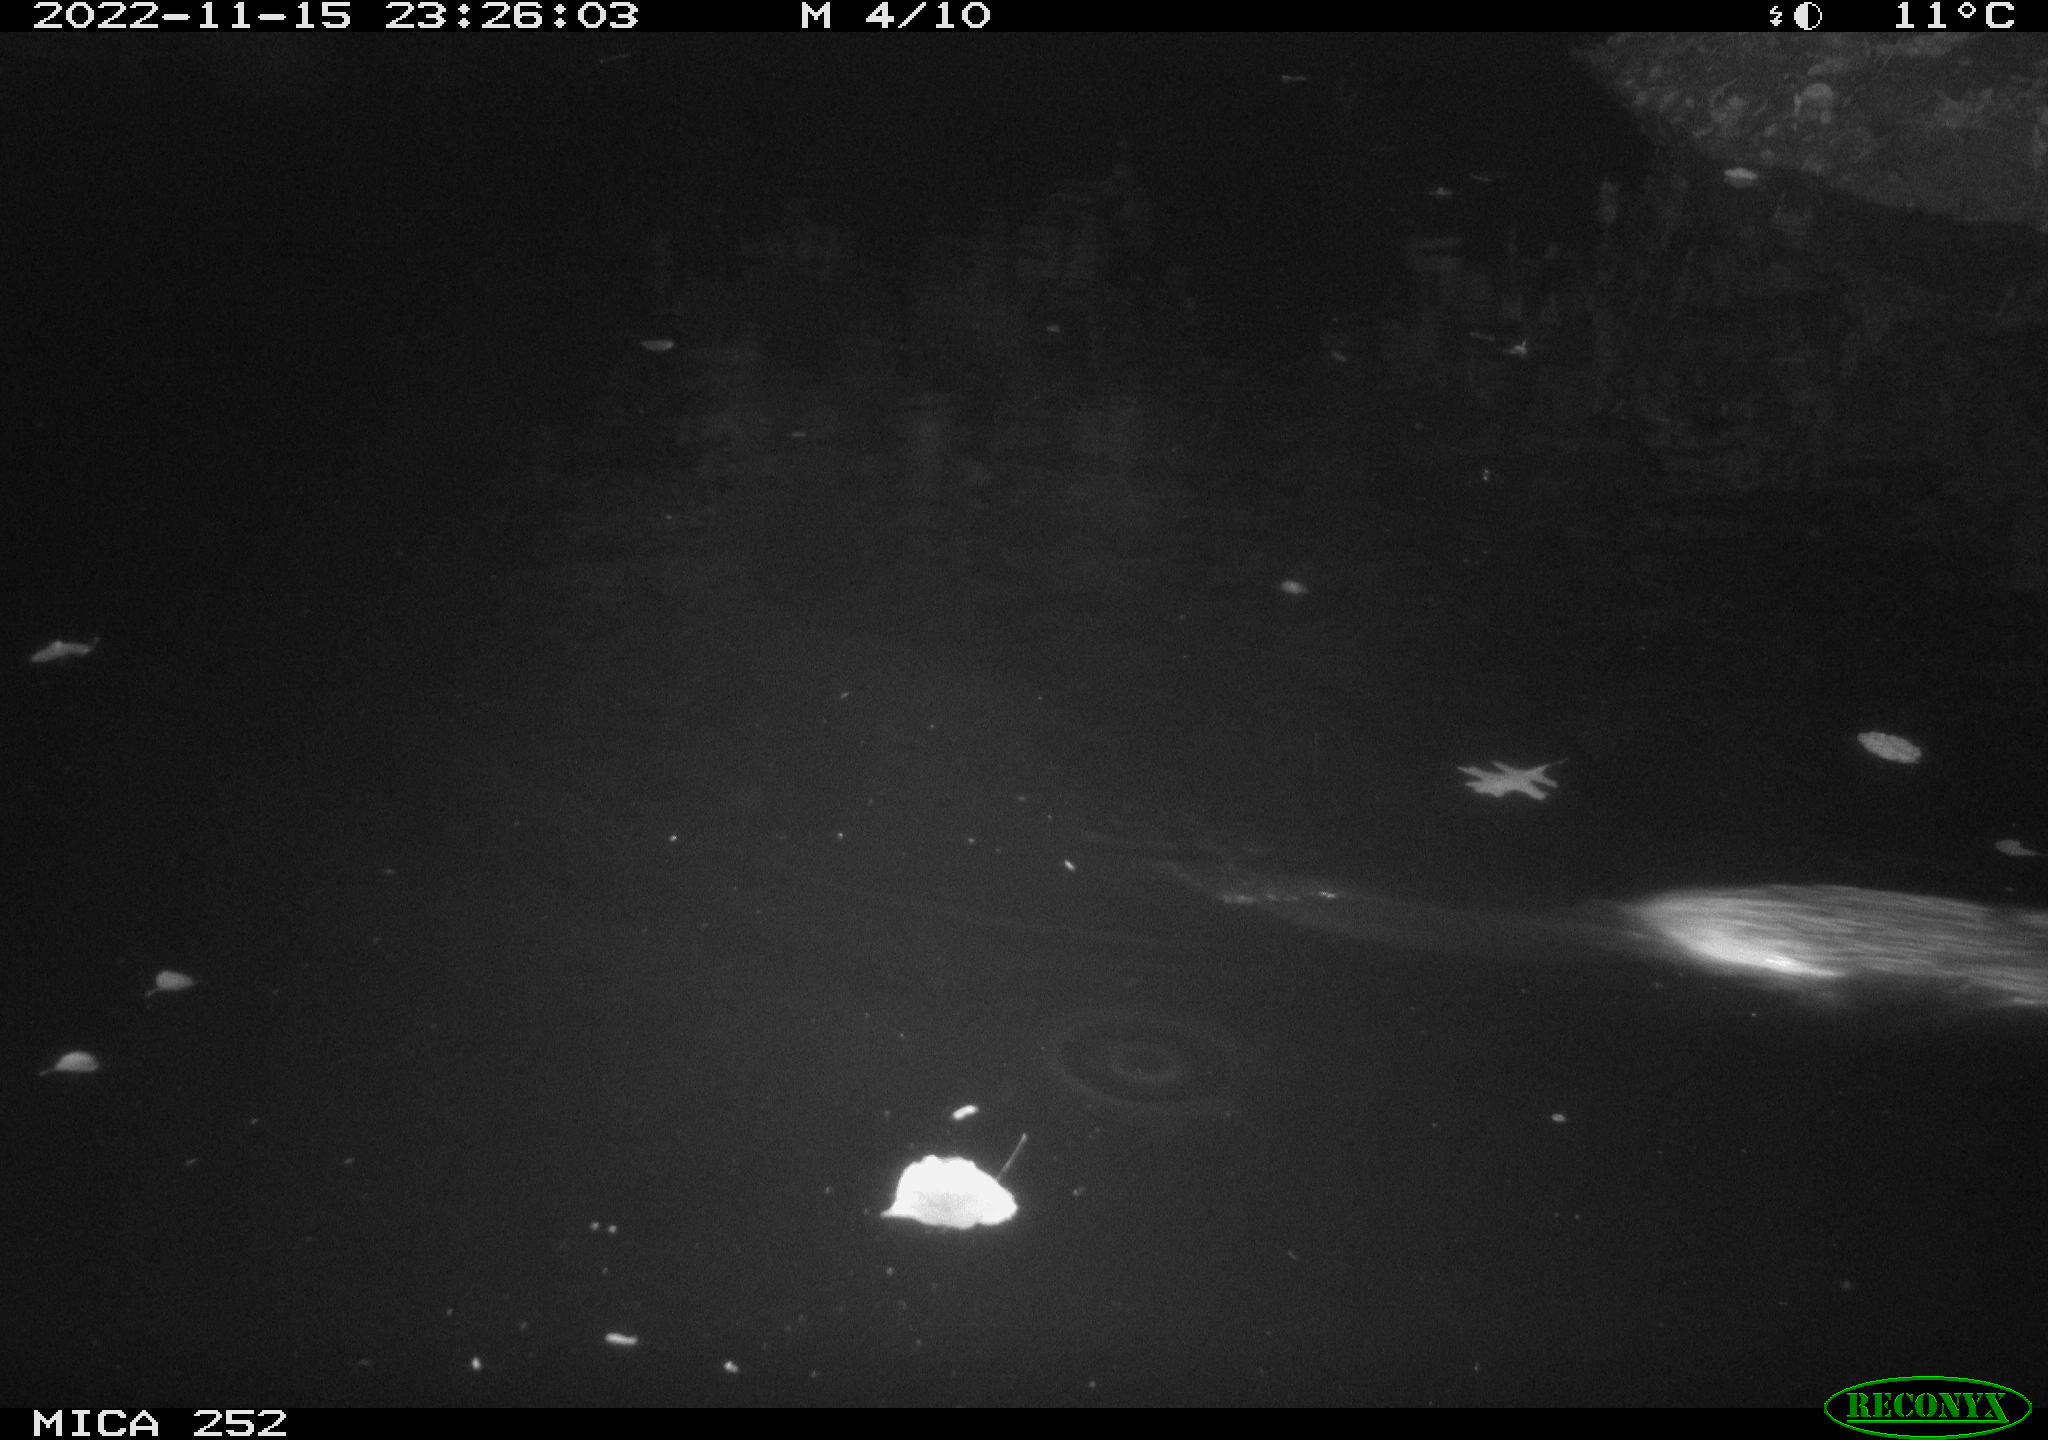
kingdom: Animalia
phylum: Chordata
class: Mammalia
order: Rodentia
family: Castoridae
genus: Castor
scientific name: Castor fiber
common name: Eurasian beaver
